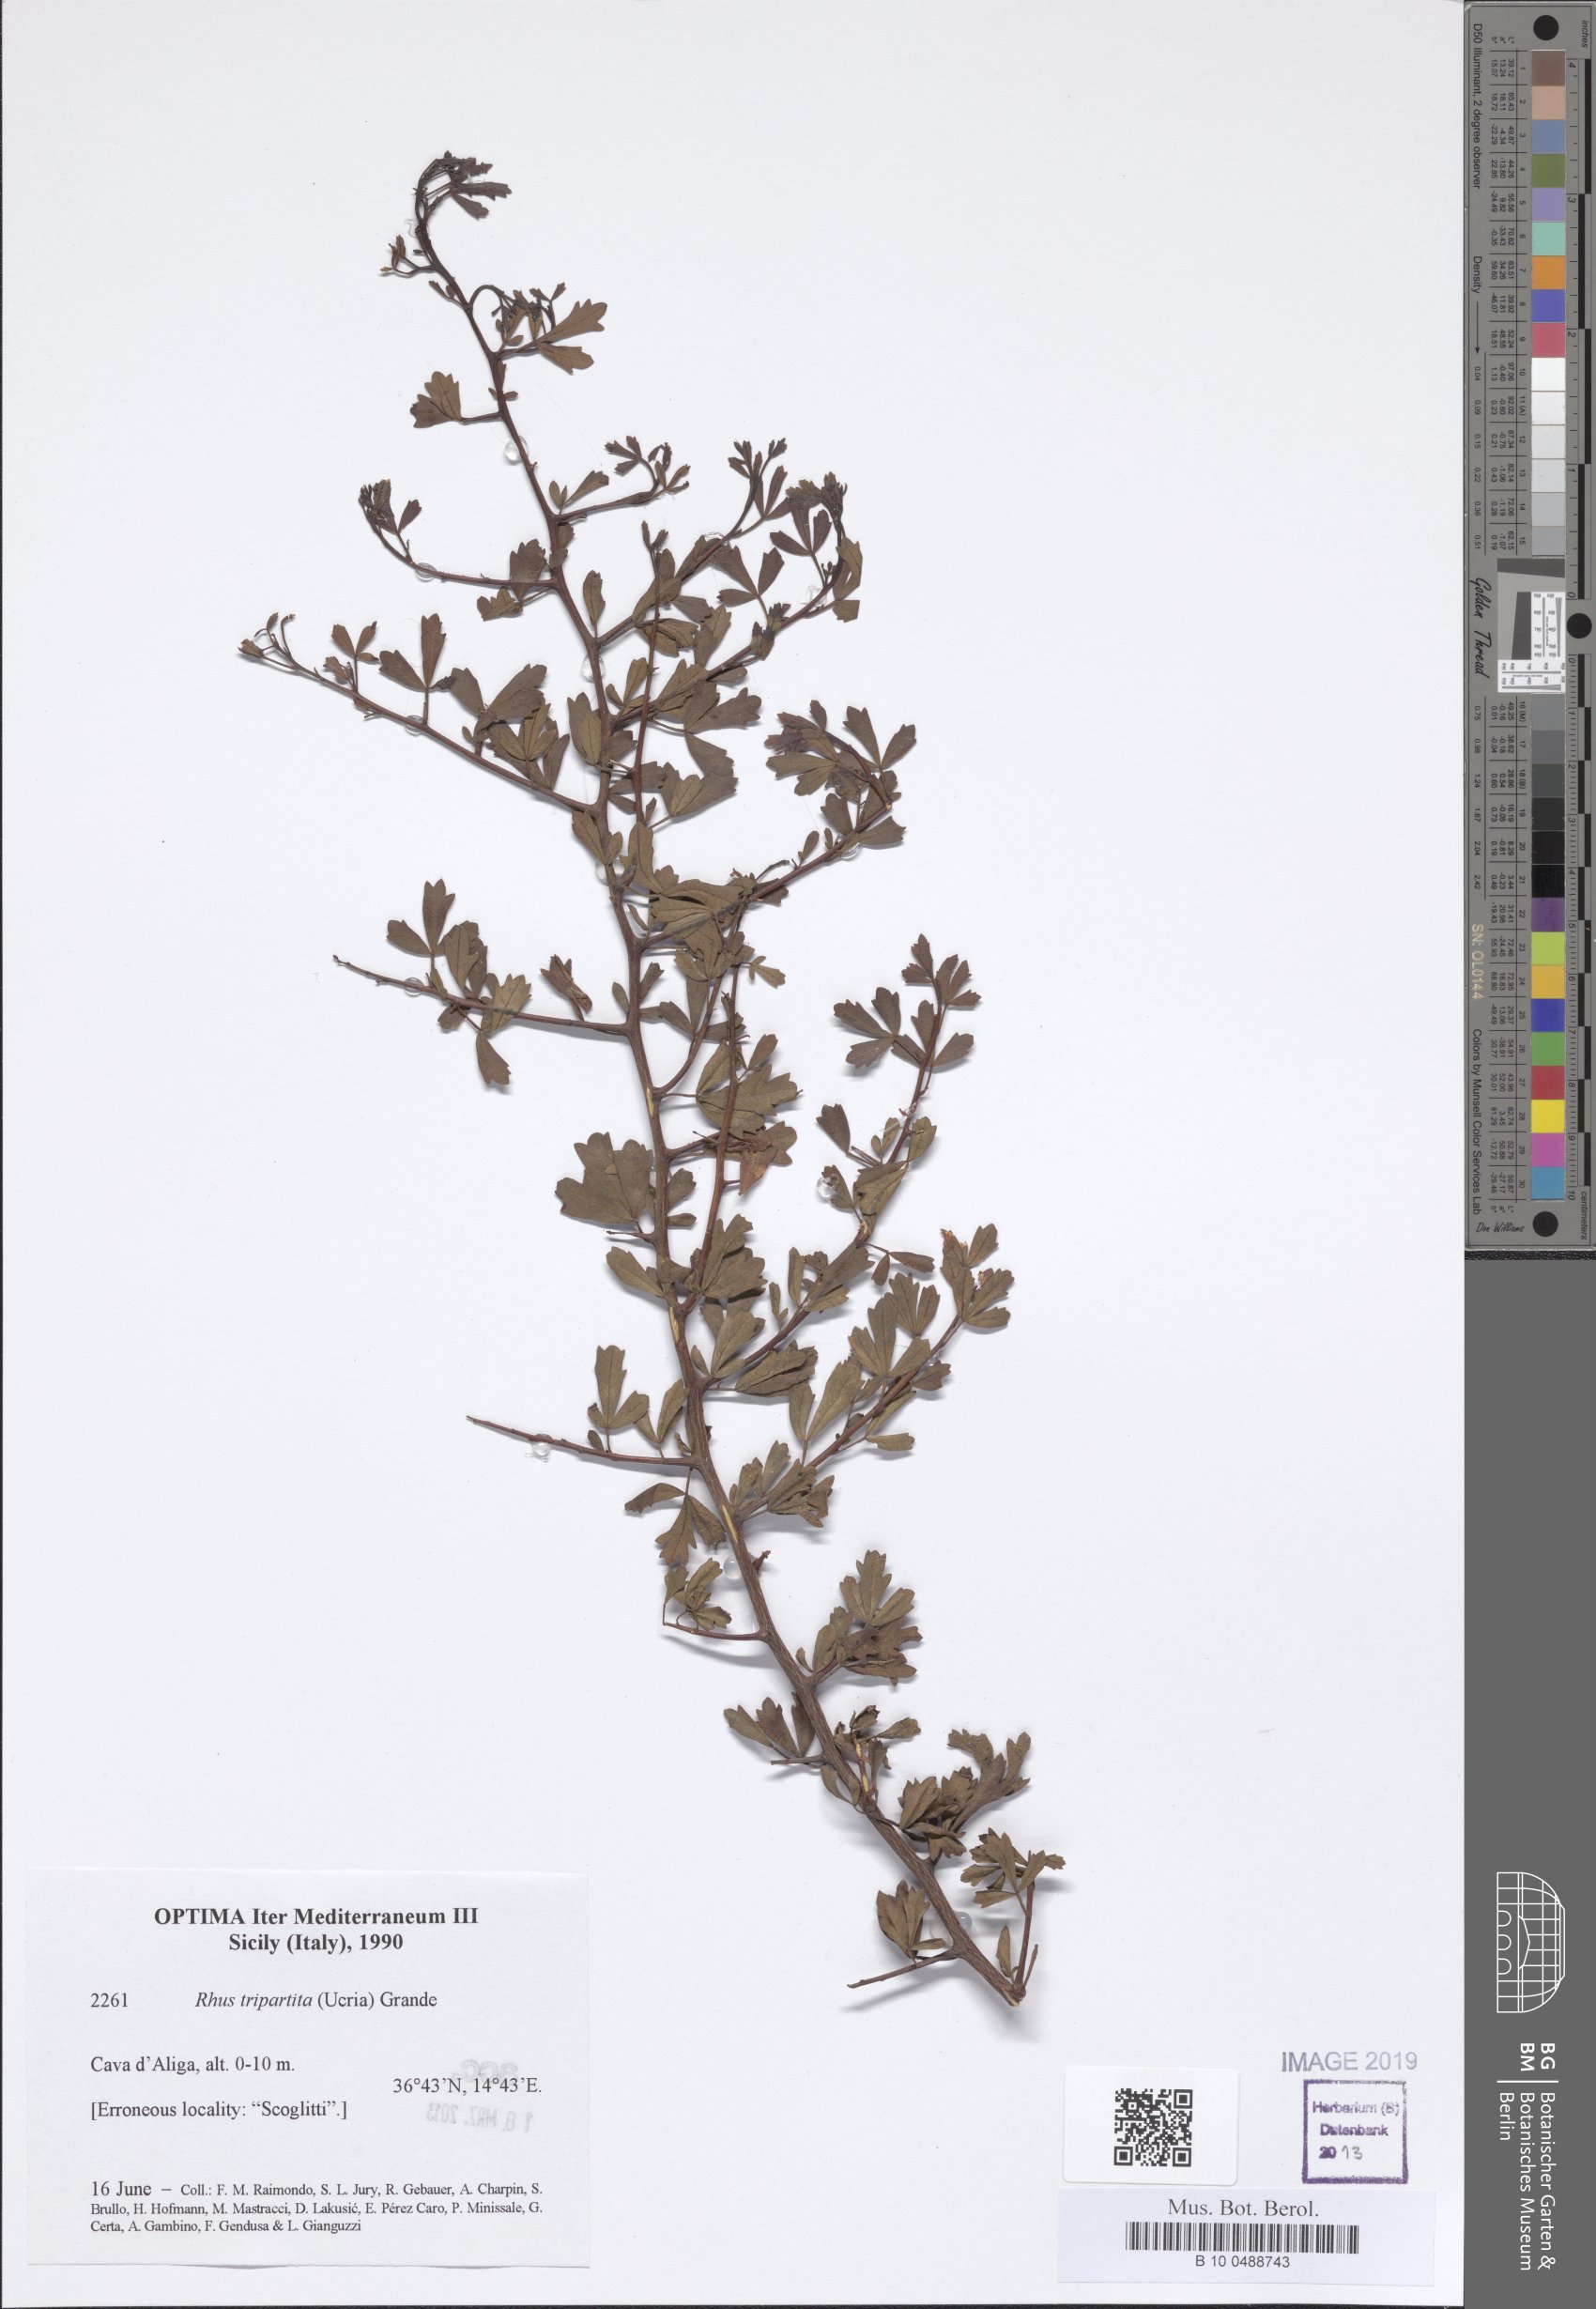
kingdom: Plantae
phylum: Tracheophyta
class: Magnoliopsida
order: Sapindales
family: Anacardiaceae
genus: Searsia
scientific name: Searsia tripartita
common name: Tripartite sumac
